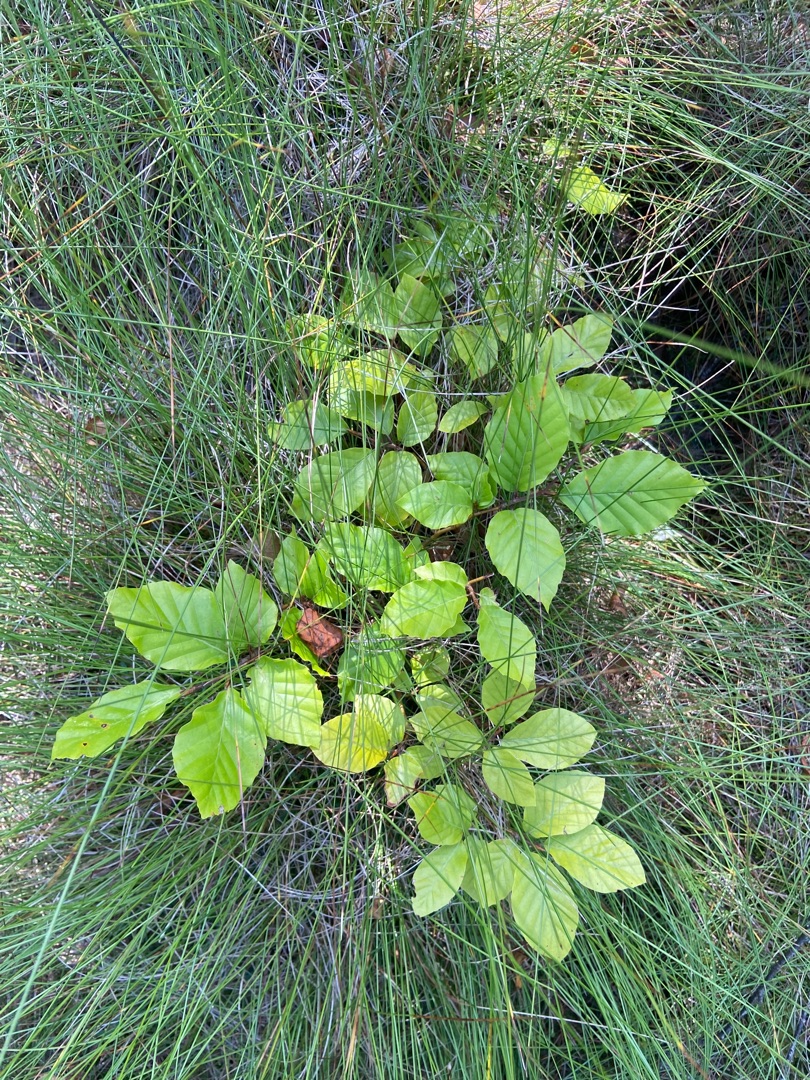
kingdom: Plantae
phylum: Tracheophyta
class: Magnoliopsida
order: Fagales
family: Fagaceae
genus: Fagus
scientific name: Fagus sylvatica
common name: Bøg
